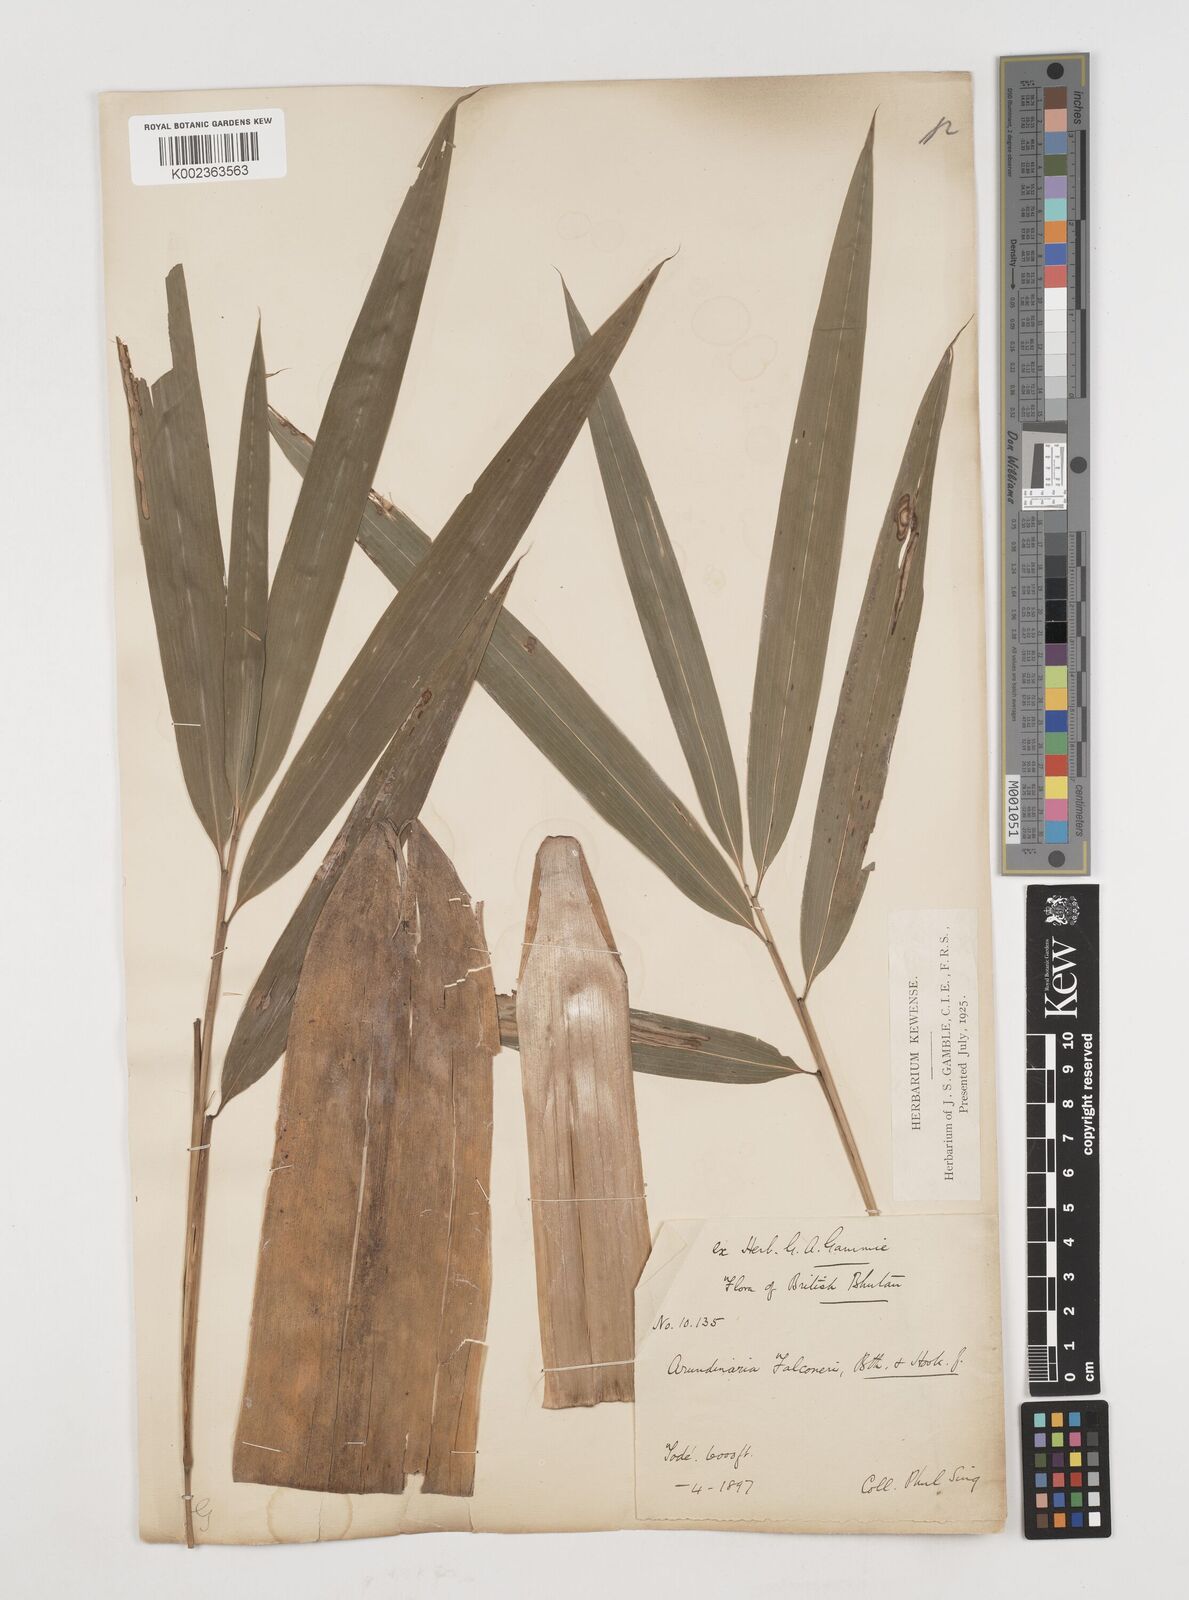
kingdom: Plantae
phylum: Tracheophyta
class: Liliopsida
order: Poales
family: Poaceae
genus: Himalayacalamus
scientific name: Himalayacalamus falconeri
